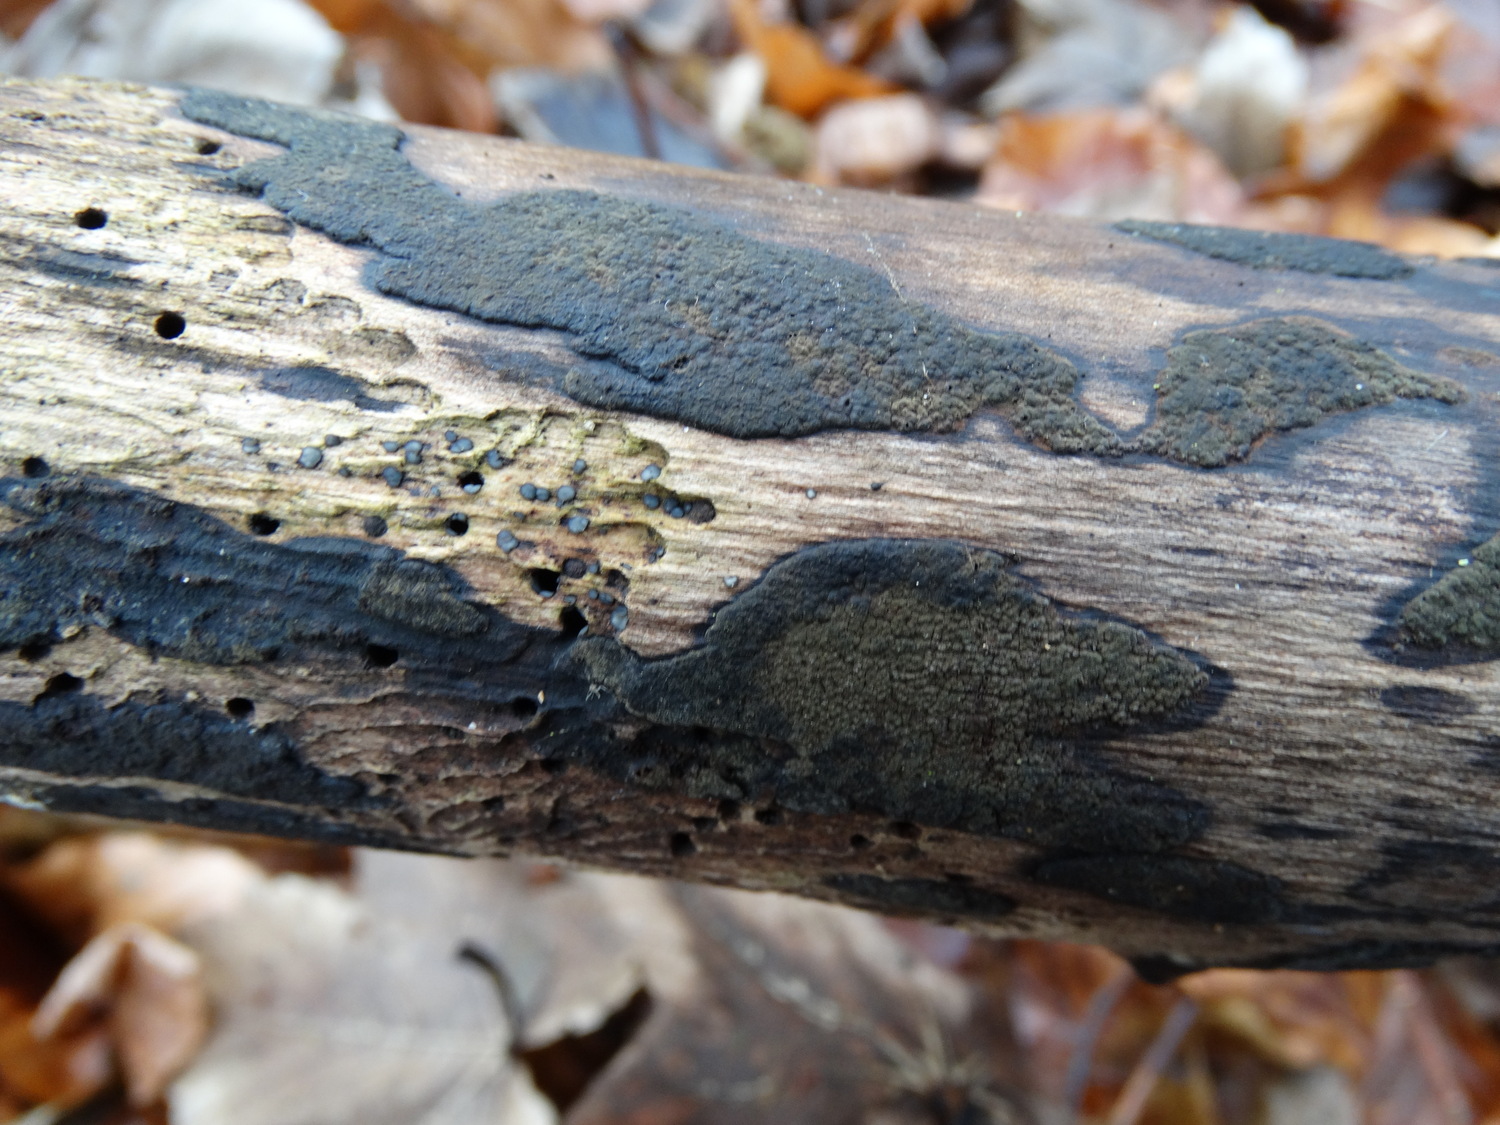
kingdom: Fungi
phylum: Ascomycota
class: Sordariomycetes
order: Xylariales
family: Hypoxylaceae
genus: Hypoxylon
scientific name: Hypoxylon petriniae
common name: nedsænket kulbær
